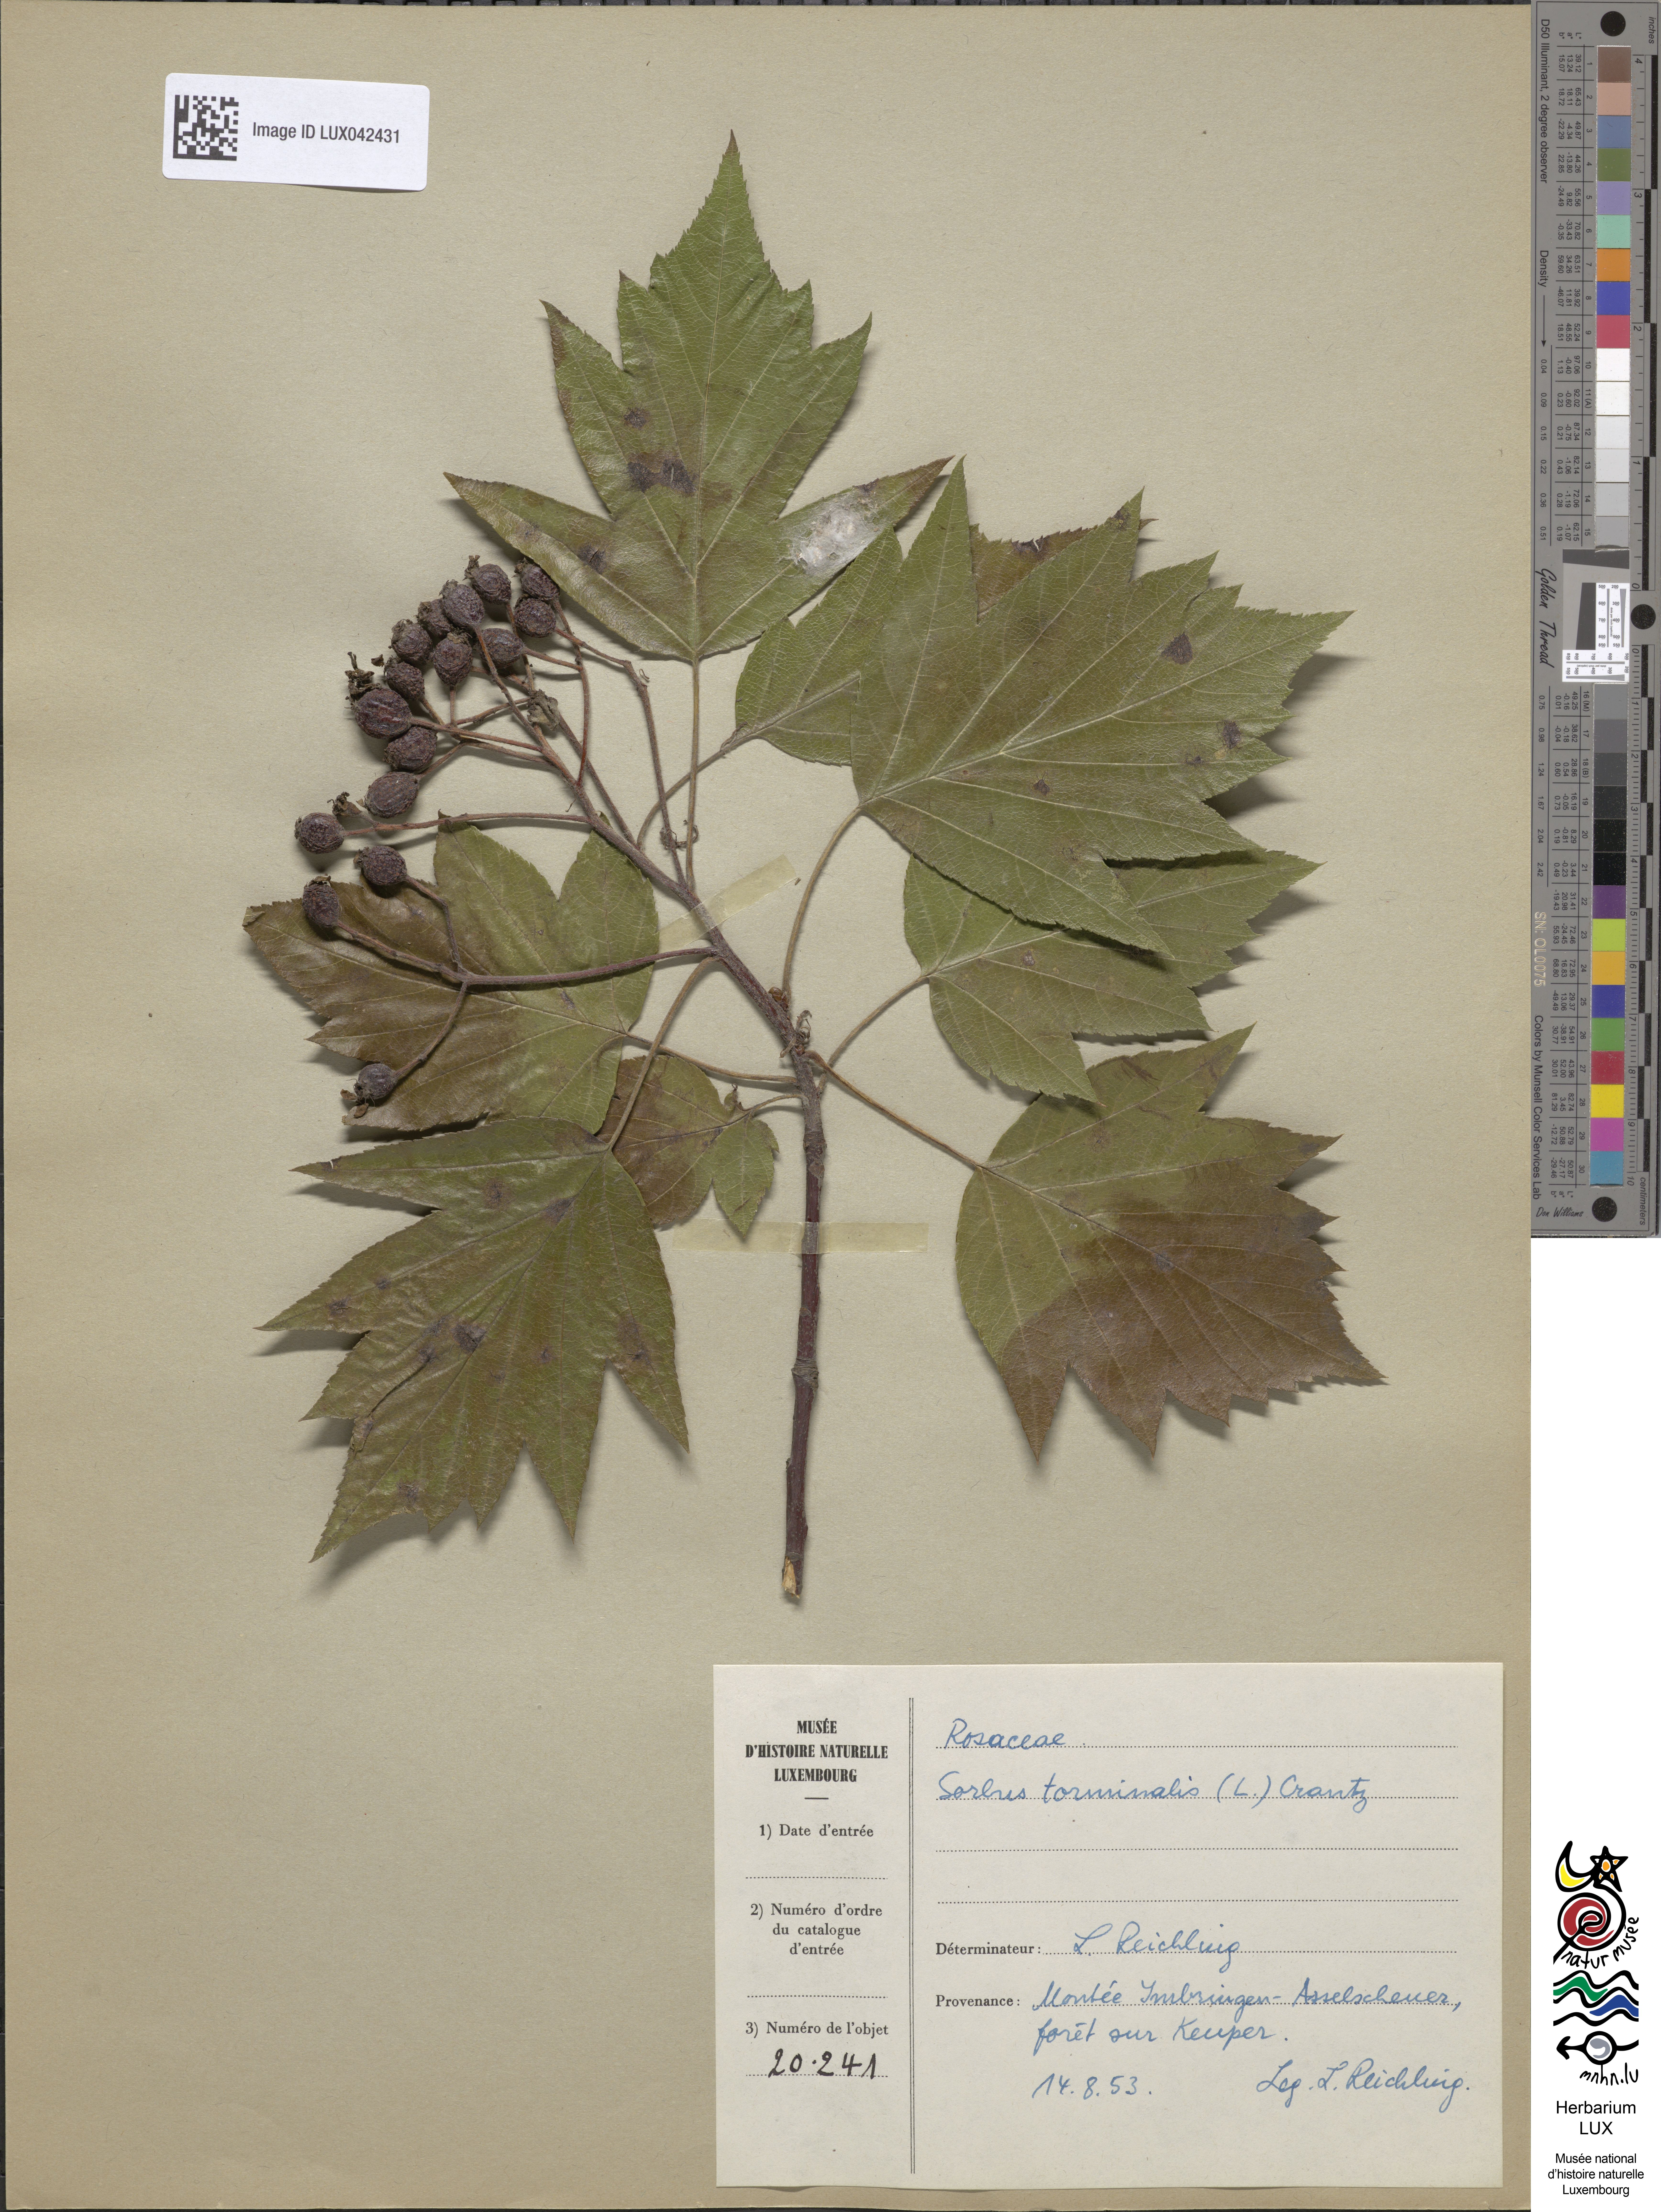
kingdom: Plantae
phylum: Tracheophyta
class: Magnoliopsida
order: Rosales
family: Rosaceae
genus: Torminalis
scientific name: Torminalis glaberrima
